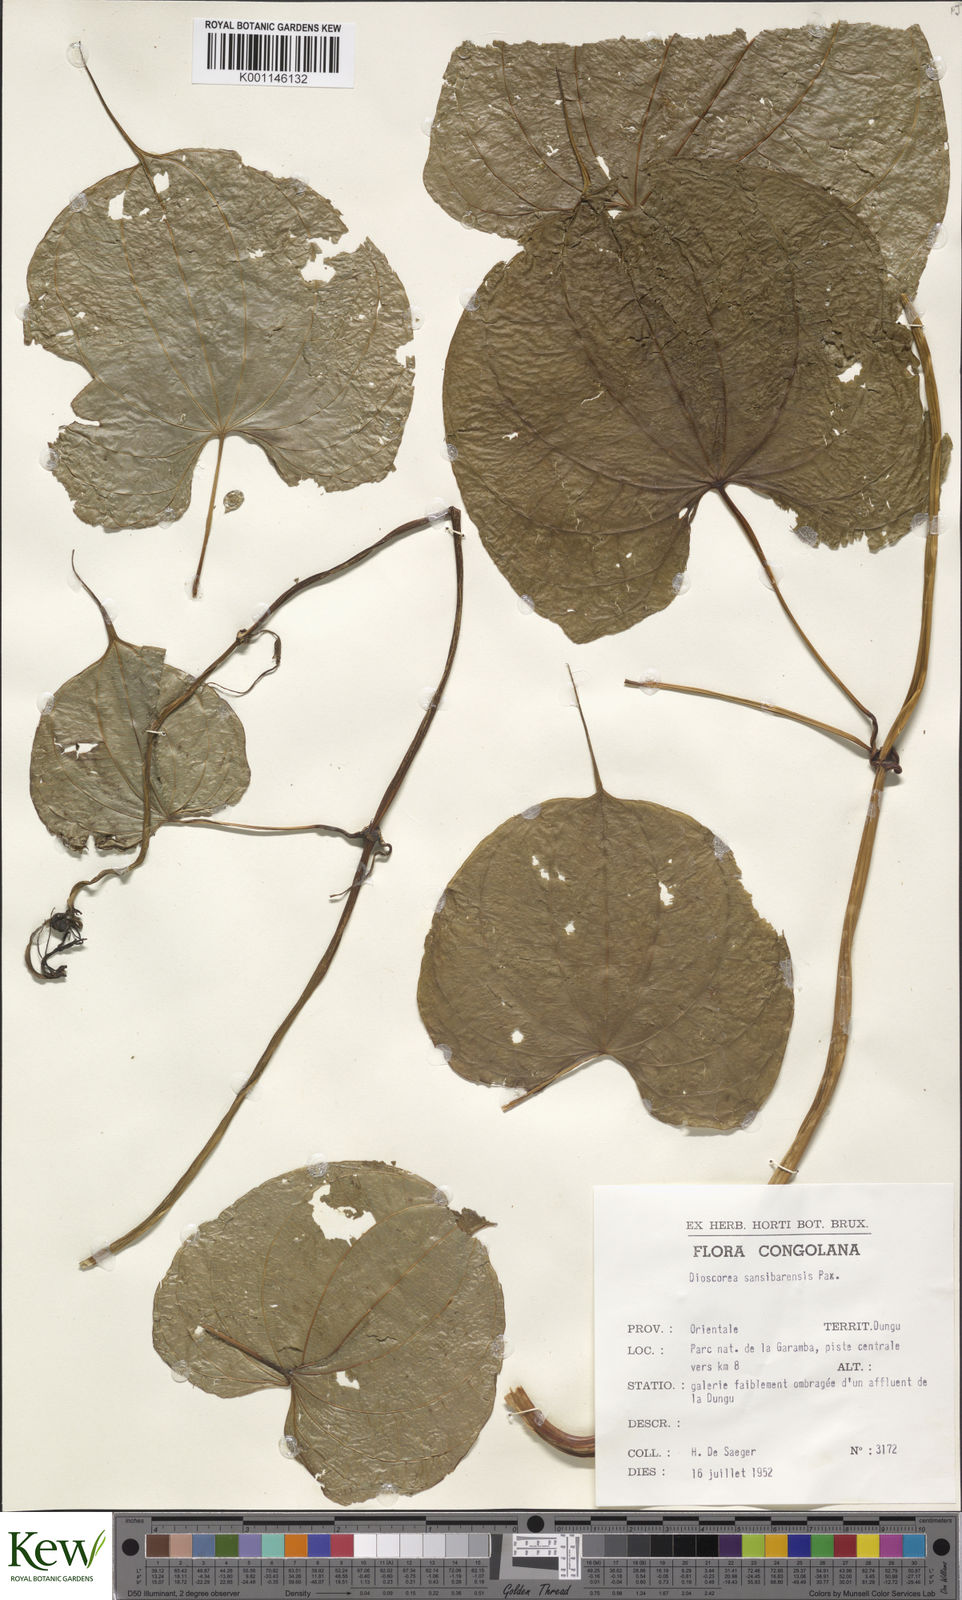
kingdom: Plantae
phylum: Tracheophyta
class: Liliopsida
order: Dioscoreales
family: Dioscoreaceae
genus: Dioscorea
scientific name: Dioscorea sansibarensis
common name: Zanzibar yam
